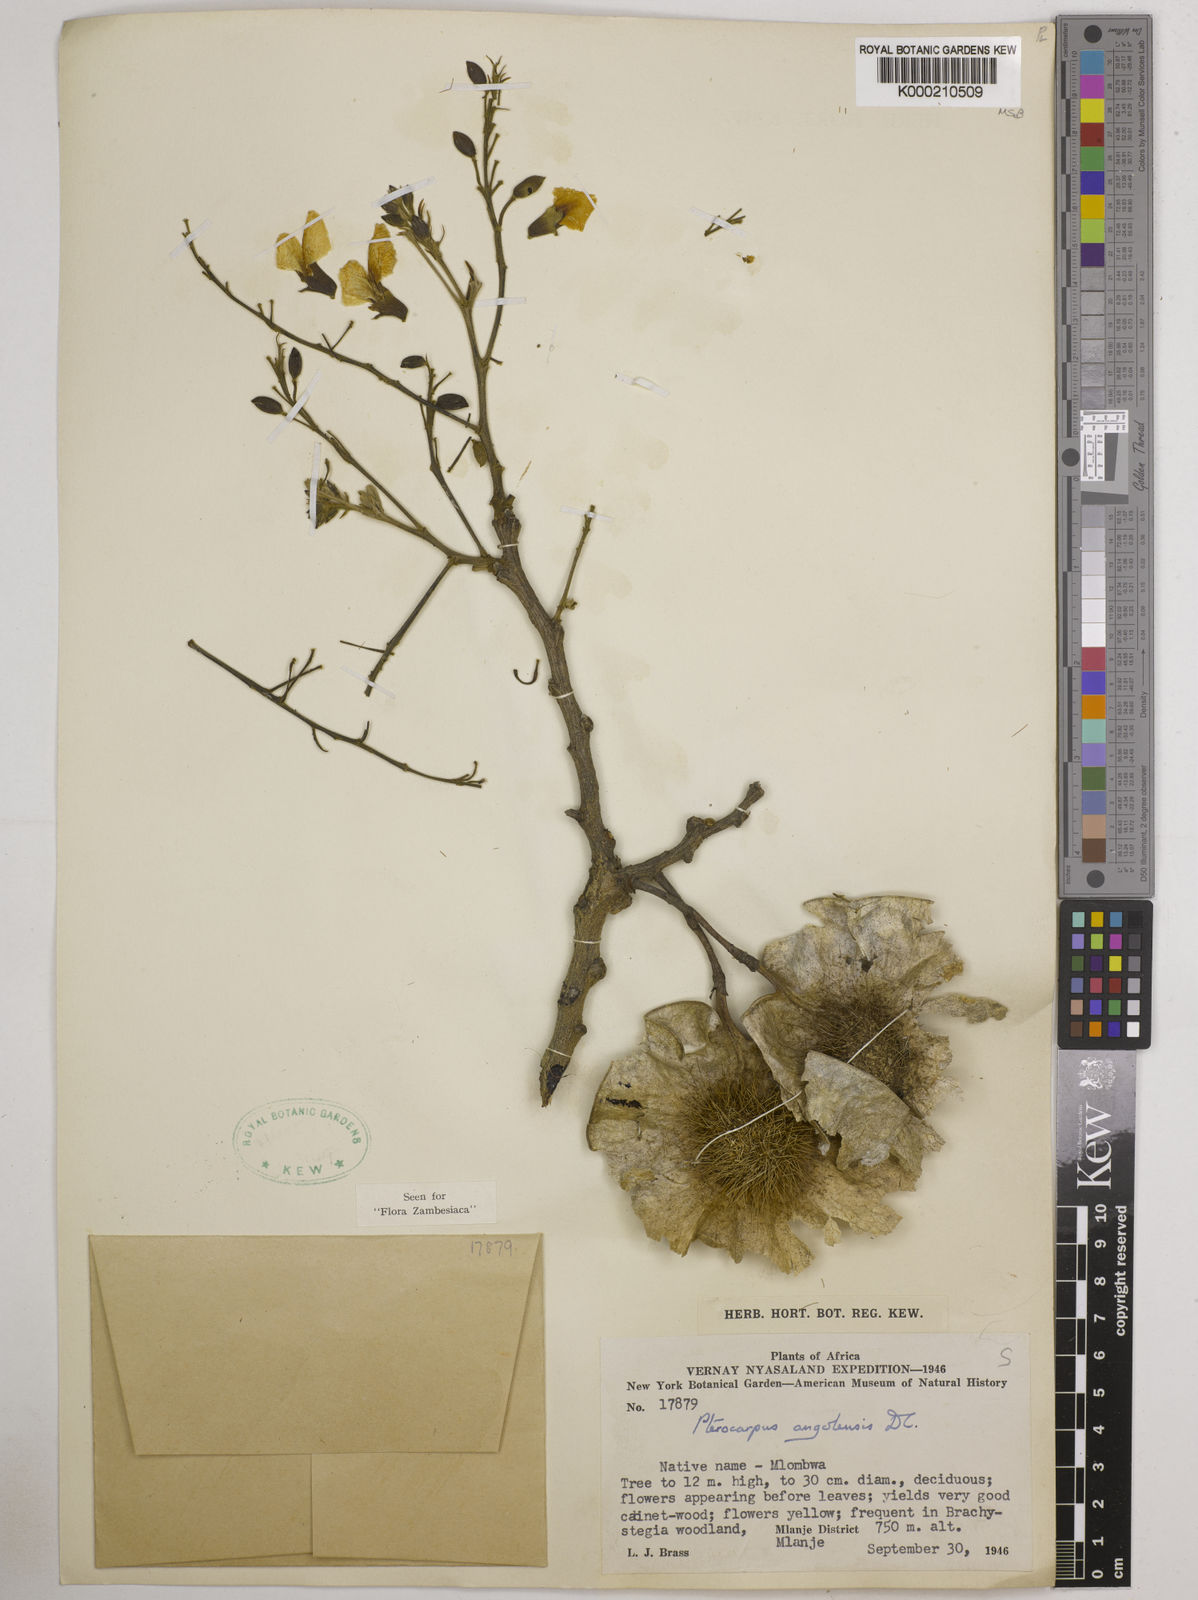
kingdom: Plantae
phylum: Tracheophyta
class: Magnoliopsida
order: Fabales
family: Fabaceae
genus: Pterocarpus
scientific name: Pterocarpus angolensis
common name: Bloodwood tree
